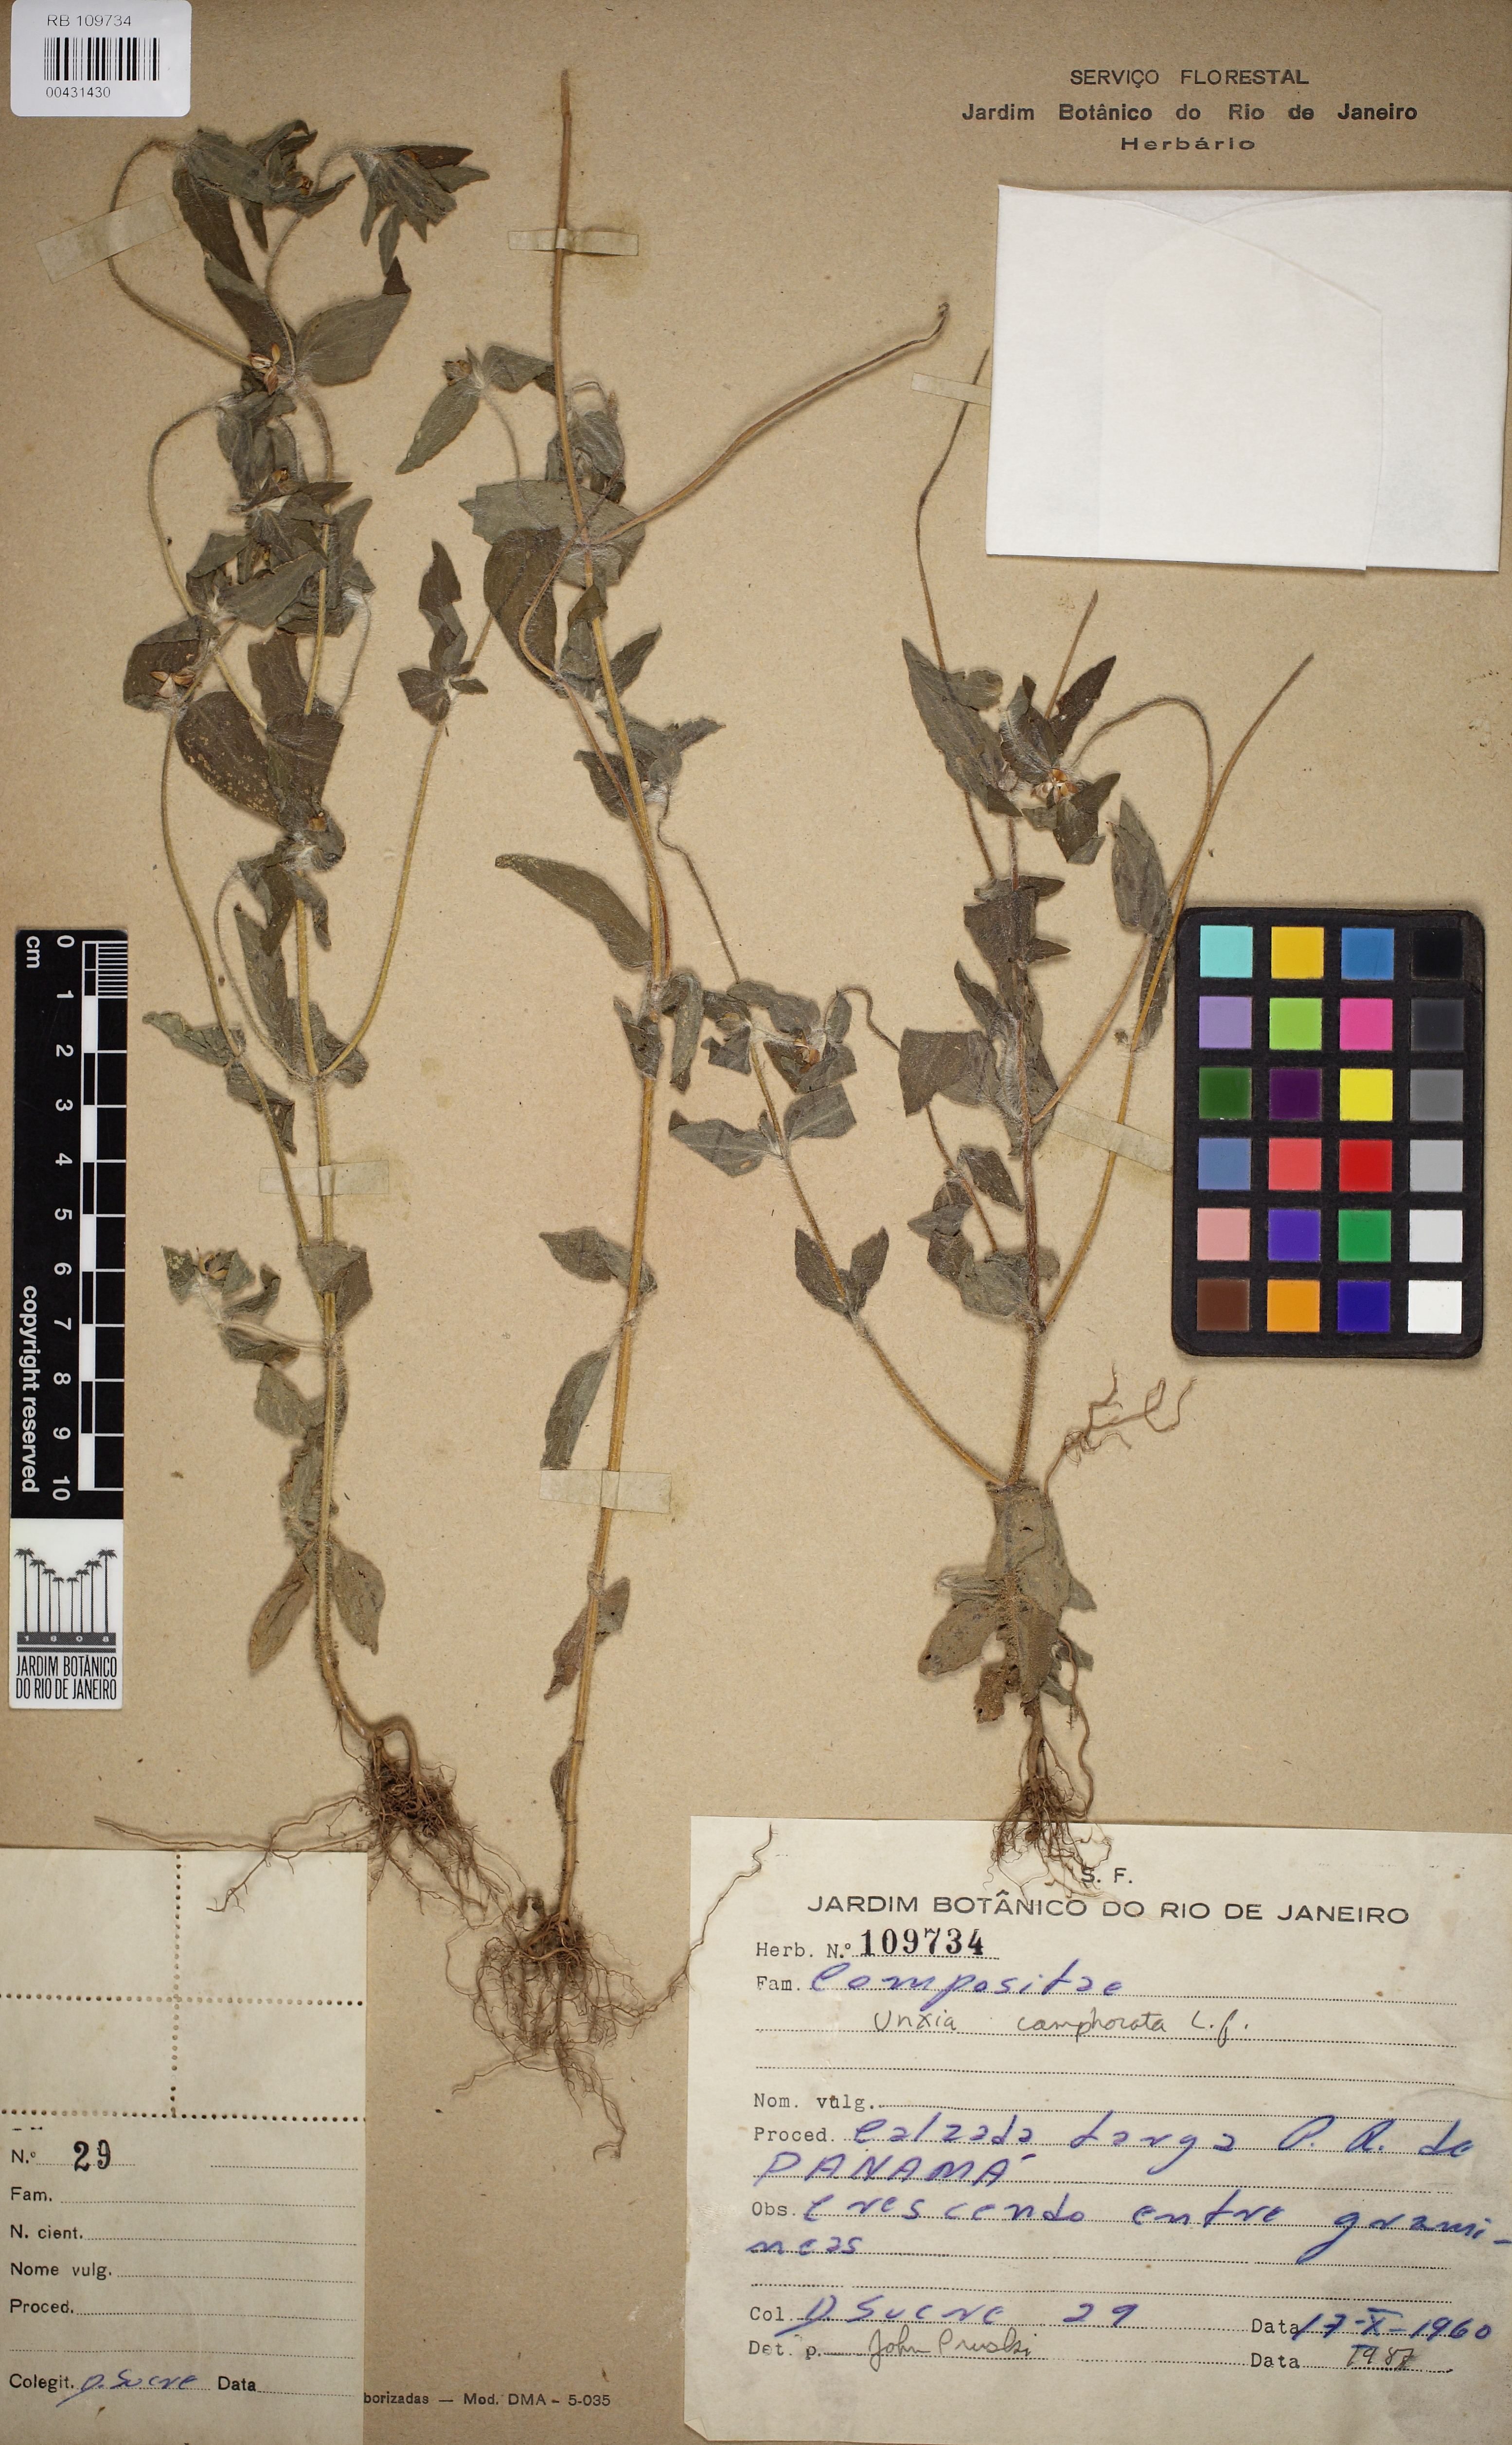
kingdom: Plantae
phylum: Tracheophyta
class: Magnoliopsida
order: Asterales
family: Asteraceae
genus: Unxia
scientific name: Unxia camphorata
